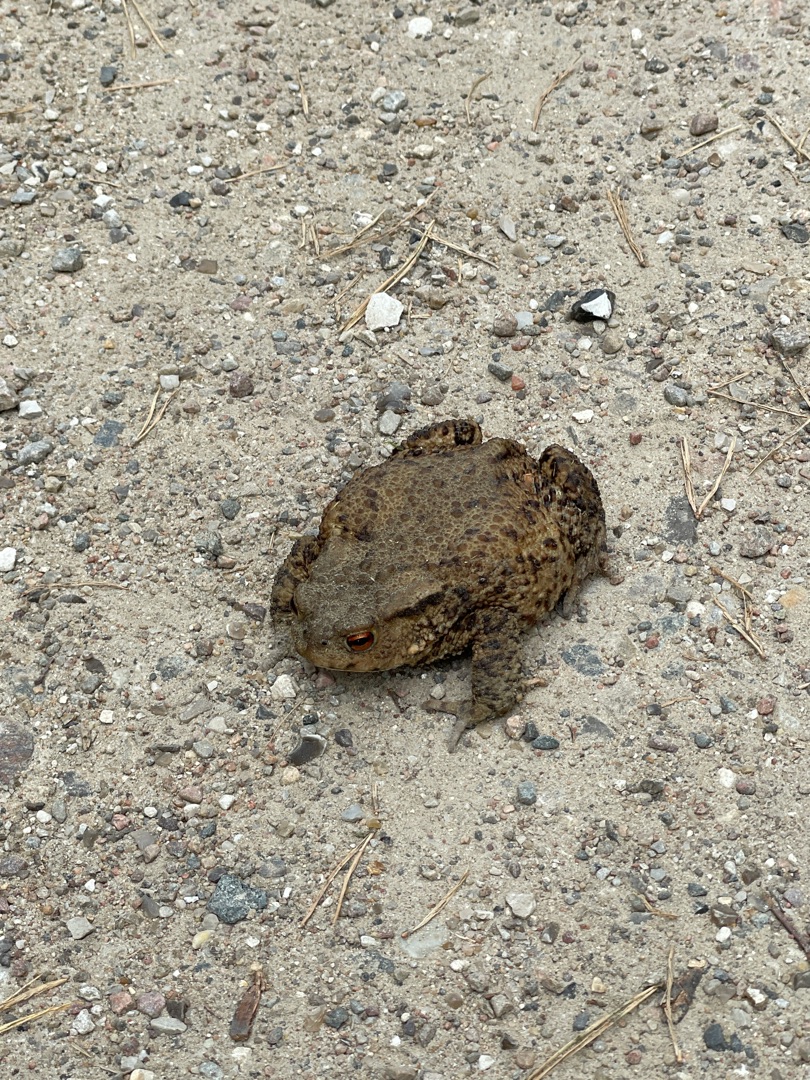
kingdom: Animalia
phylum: Chordata
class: Amphibia
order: Anura
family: Bufonidae
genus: Bufo
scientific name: Bufo bufo
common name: Skrubtudse
